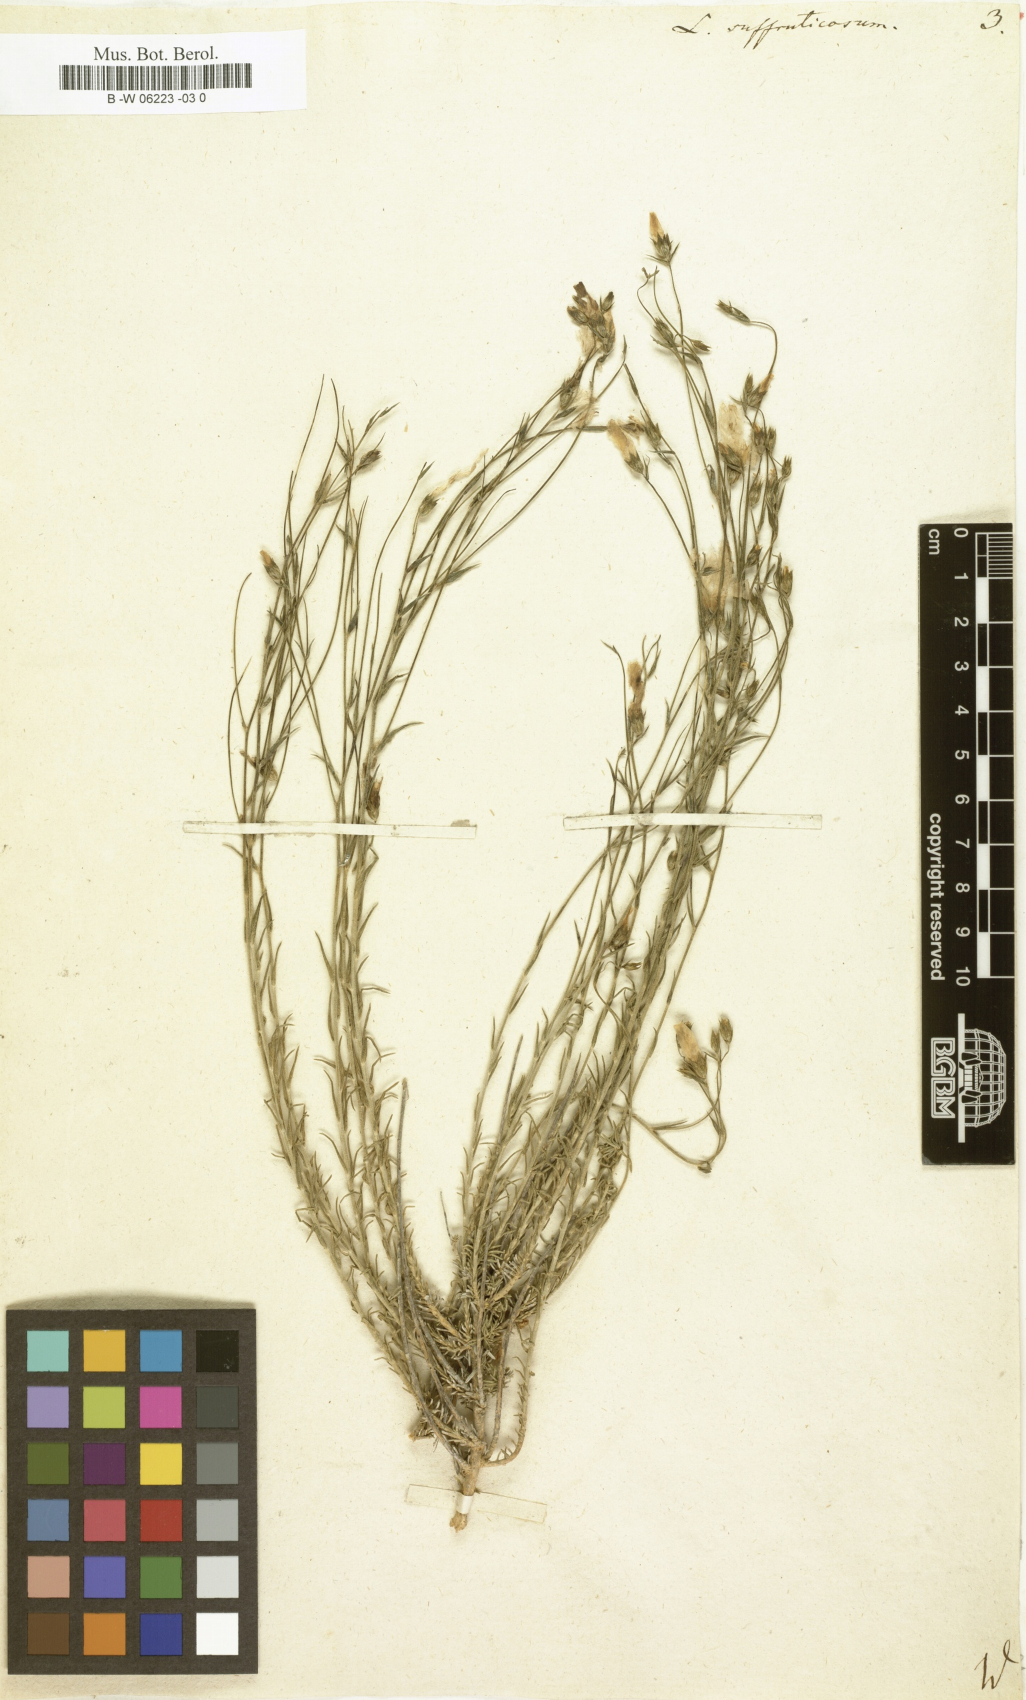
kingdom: Plantae
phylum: Tracheophyta
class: Magnoliopsida
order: Malpighiales
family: Linaceae
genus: Linum
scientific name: Linum
